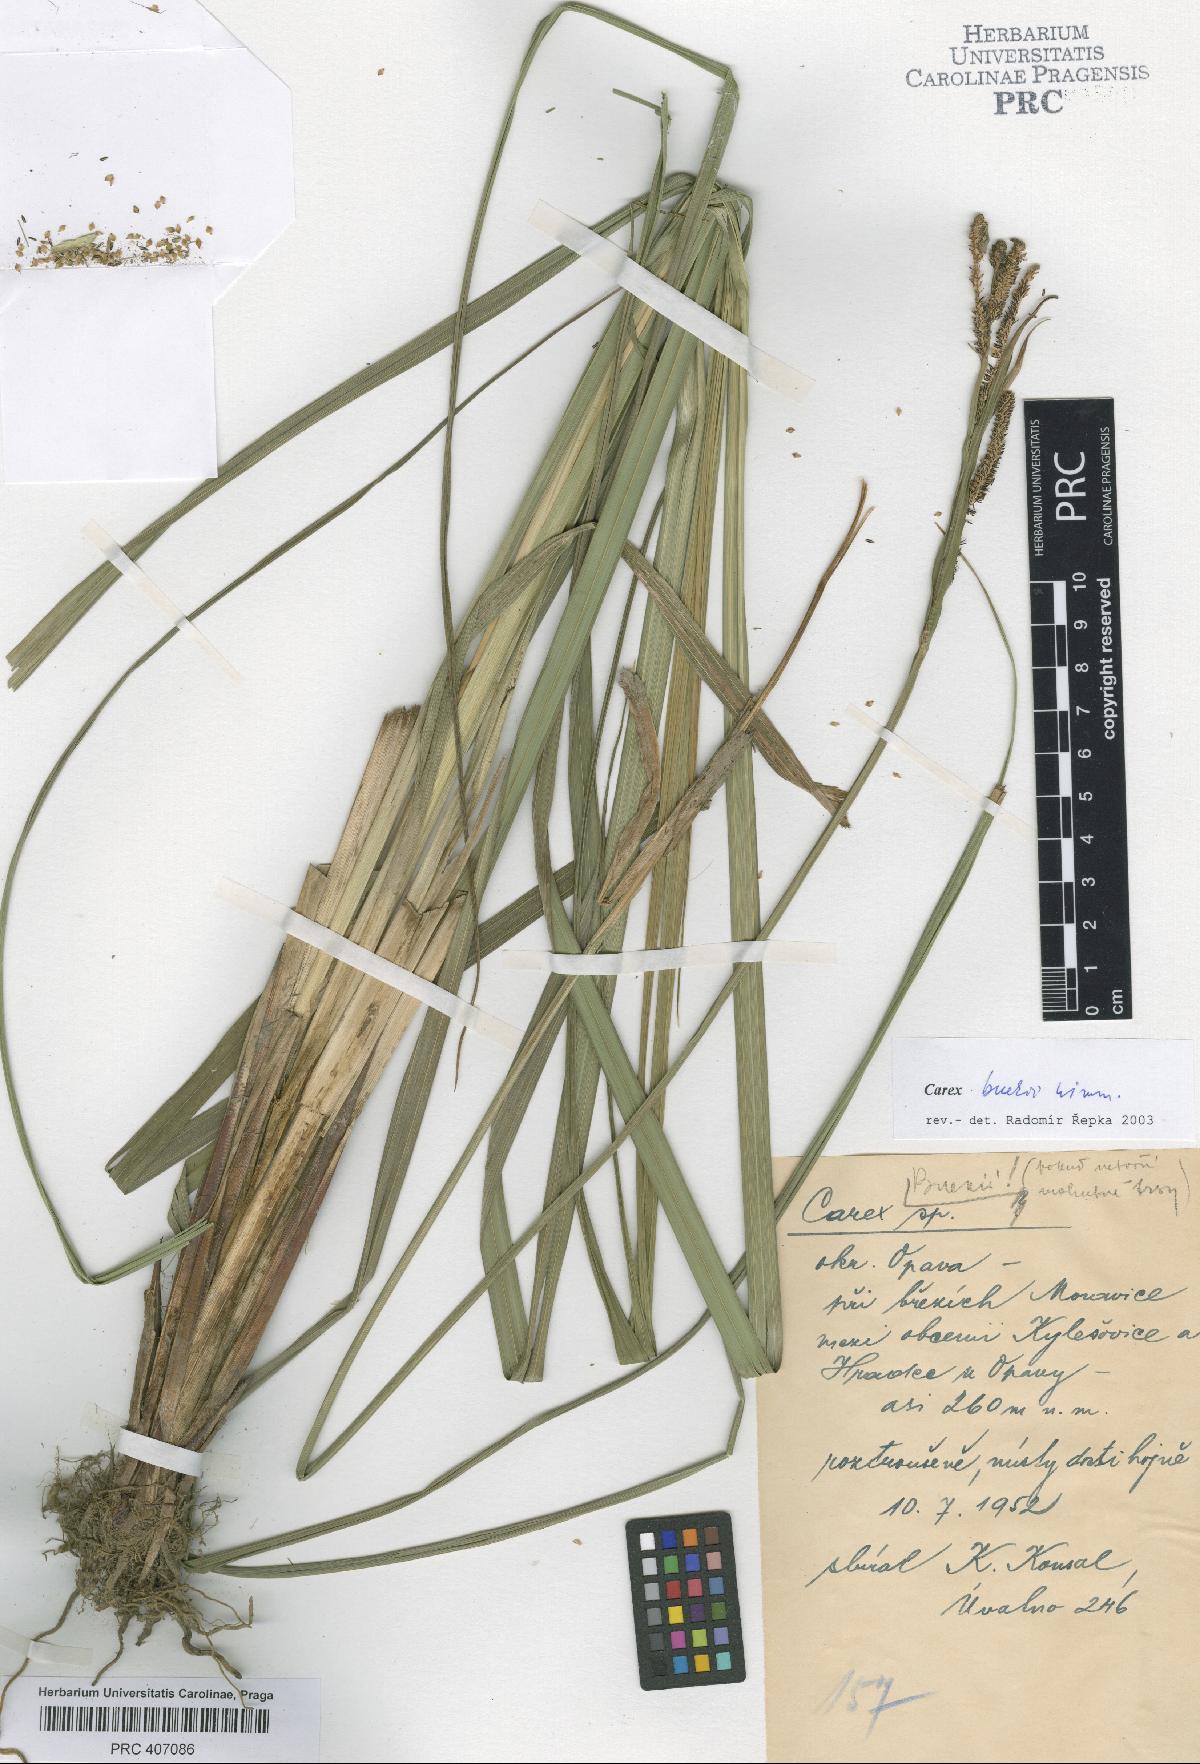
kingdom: Plantae
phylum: Tracheophyta
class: Liliopsida
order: Poales
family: Cyperaceae
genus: Carex
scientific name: Carex buekii
